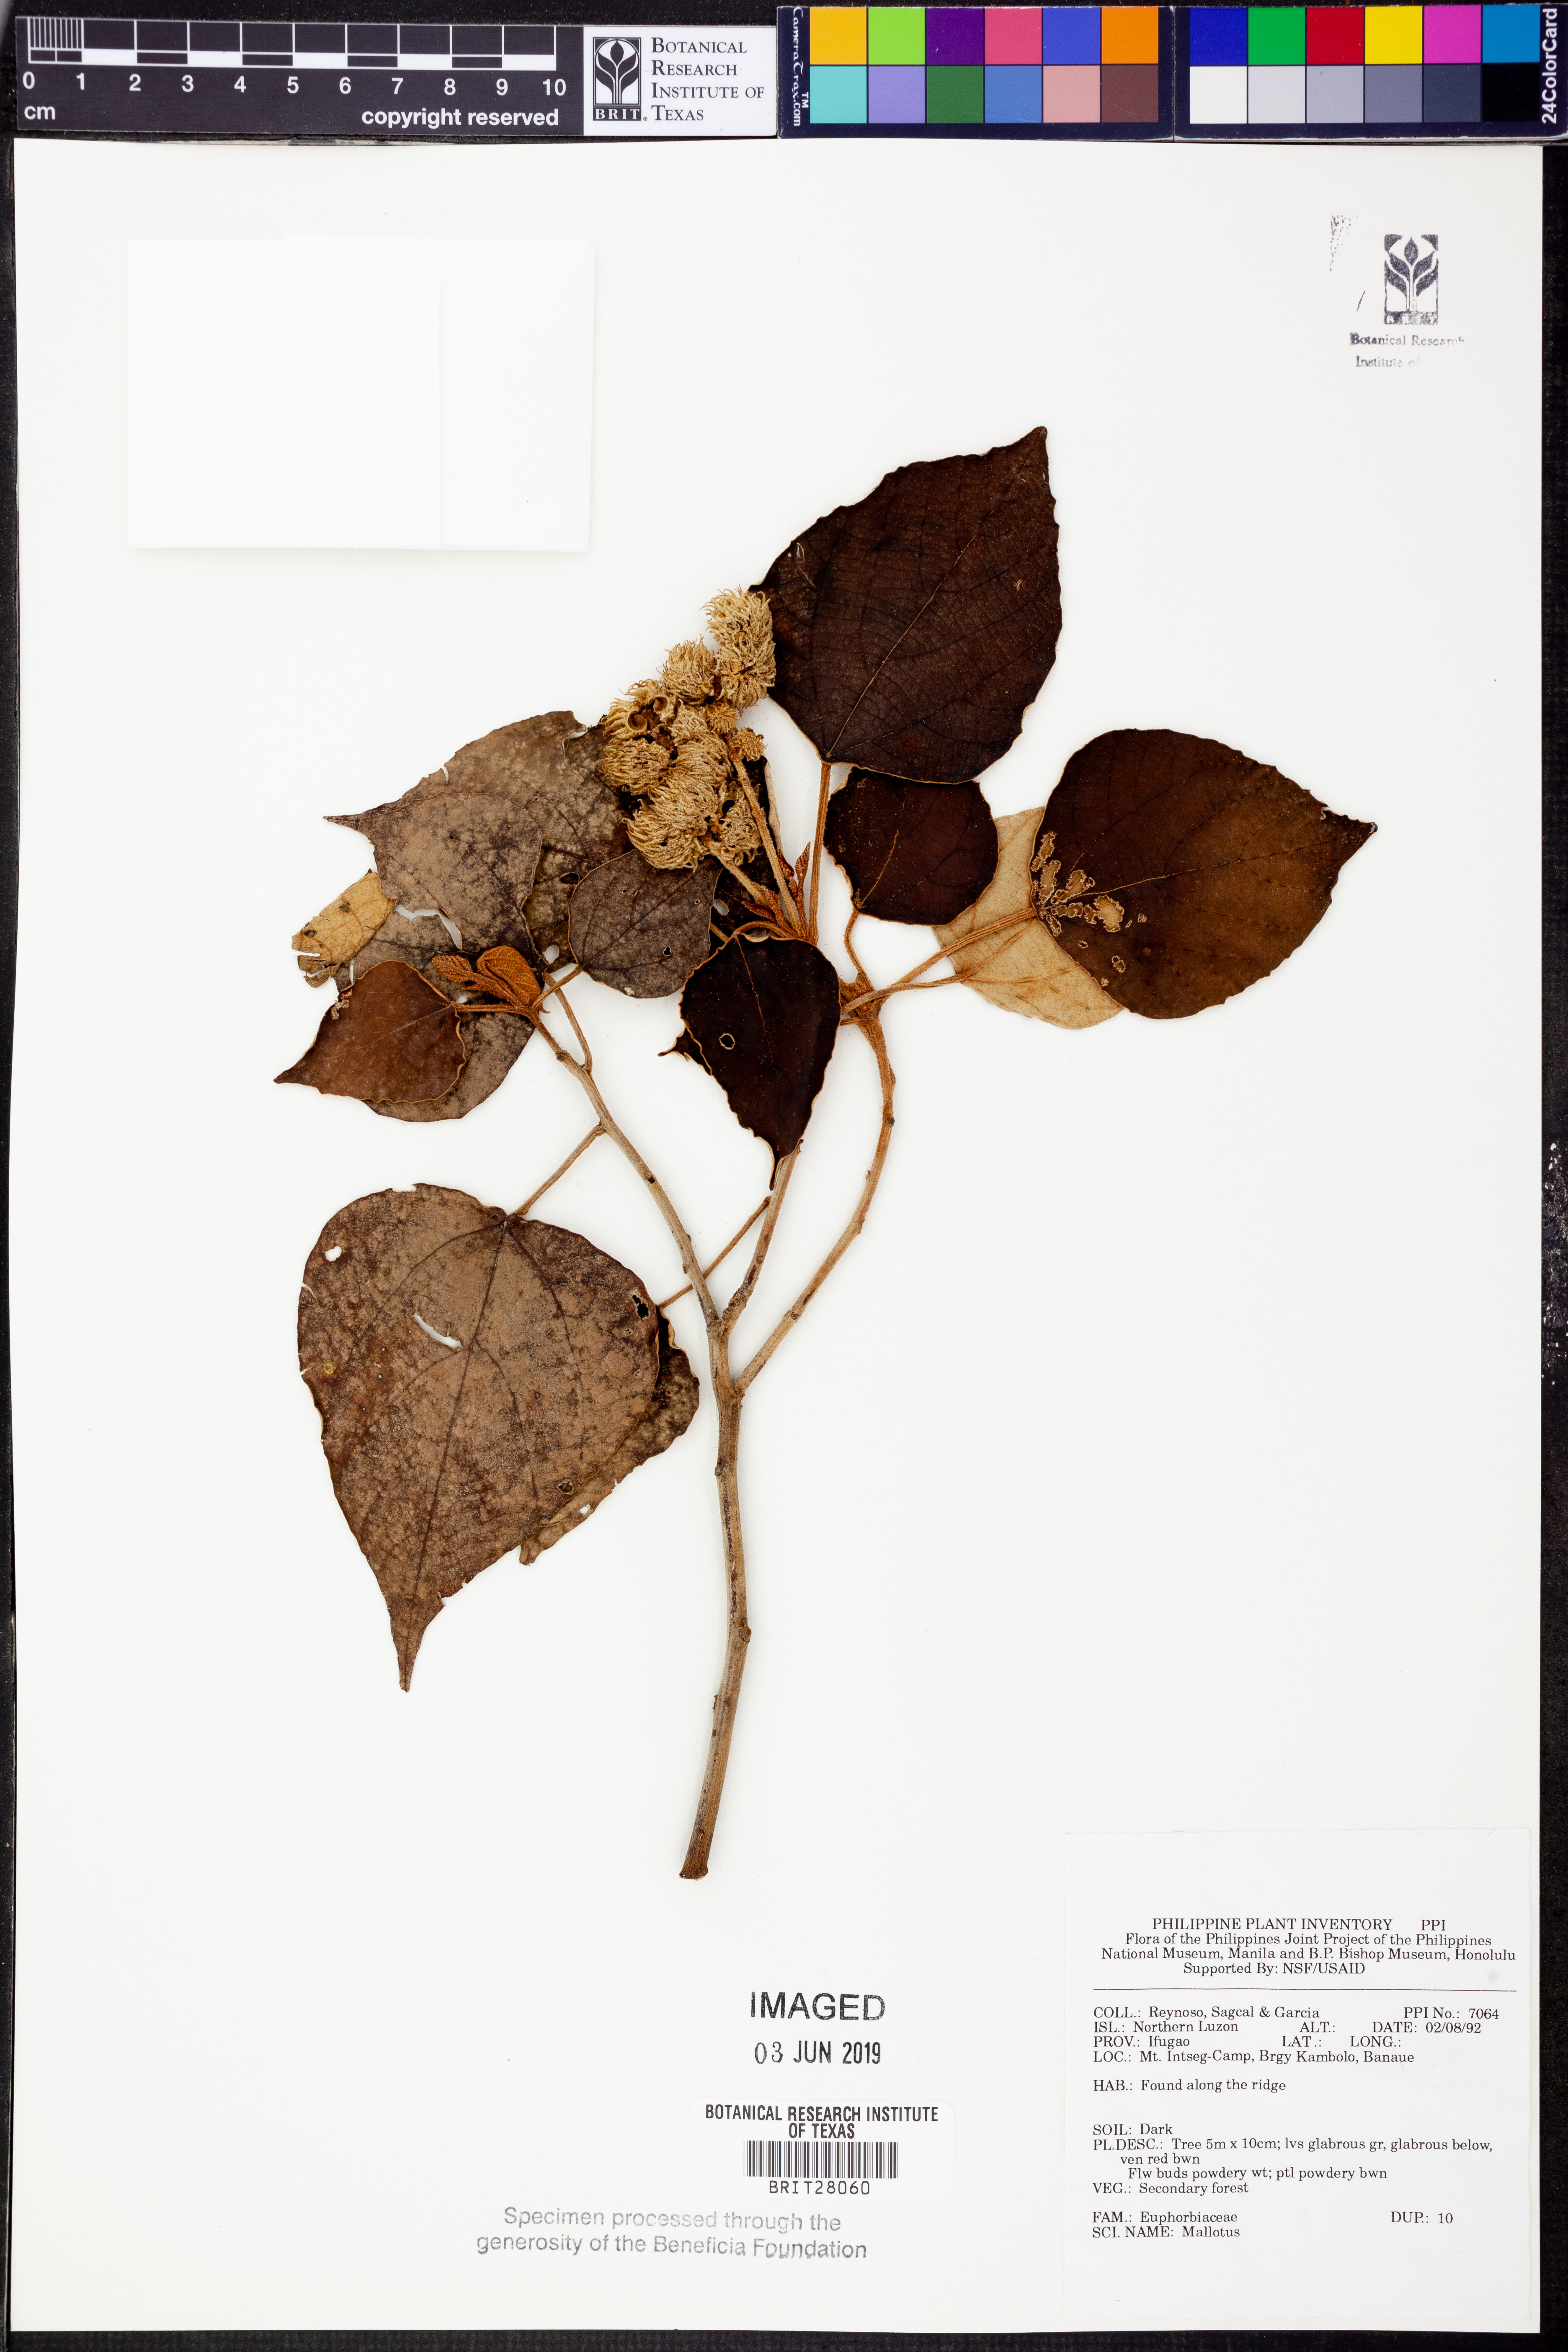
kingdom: Plantae
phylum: Tracheophyta
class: Magnoliopsida
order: Malpighiales
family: Euphorbiaceae
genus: Mallotus
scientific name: Mallotus
